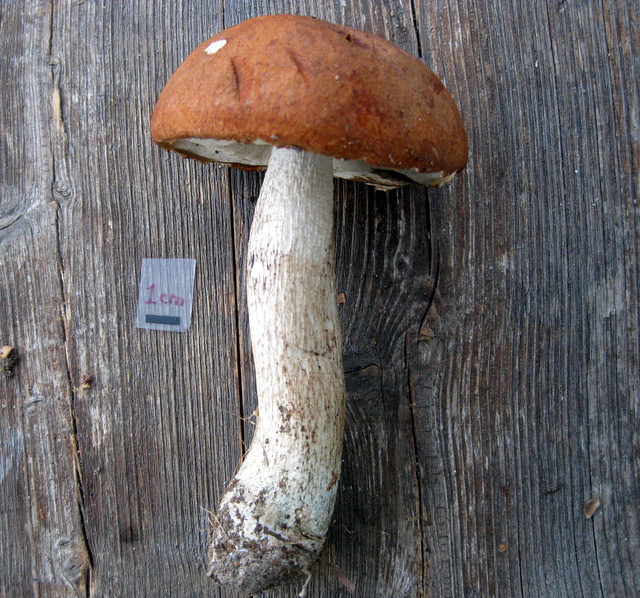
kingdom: Fungi
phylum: Basidiomycota
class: Agaricomycetes
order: Boletales
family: Boletaceae
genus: Leccinum
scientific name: Leccinum aurantiacum
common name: rustrød skælrørhat
